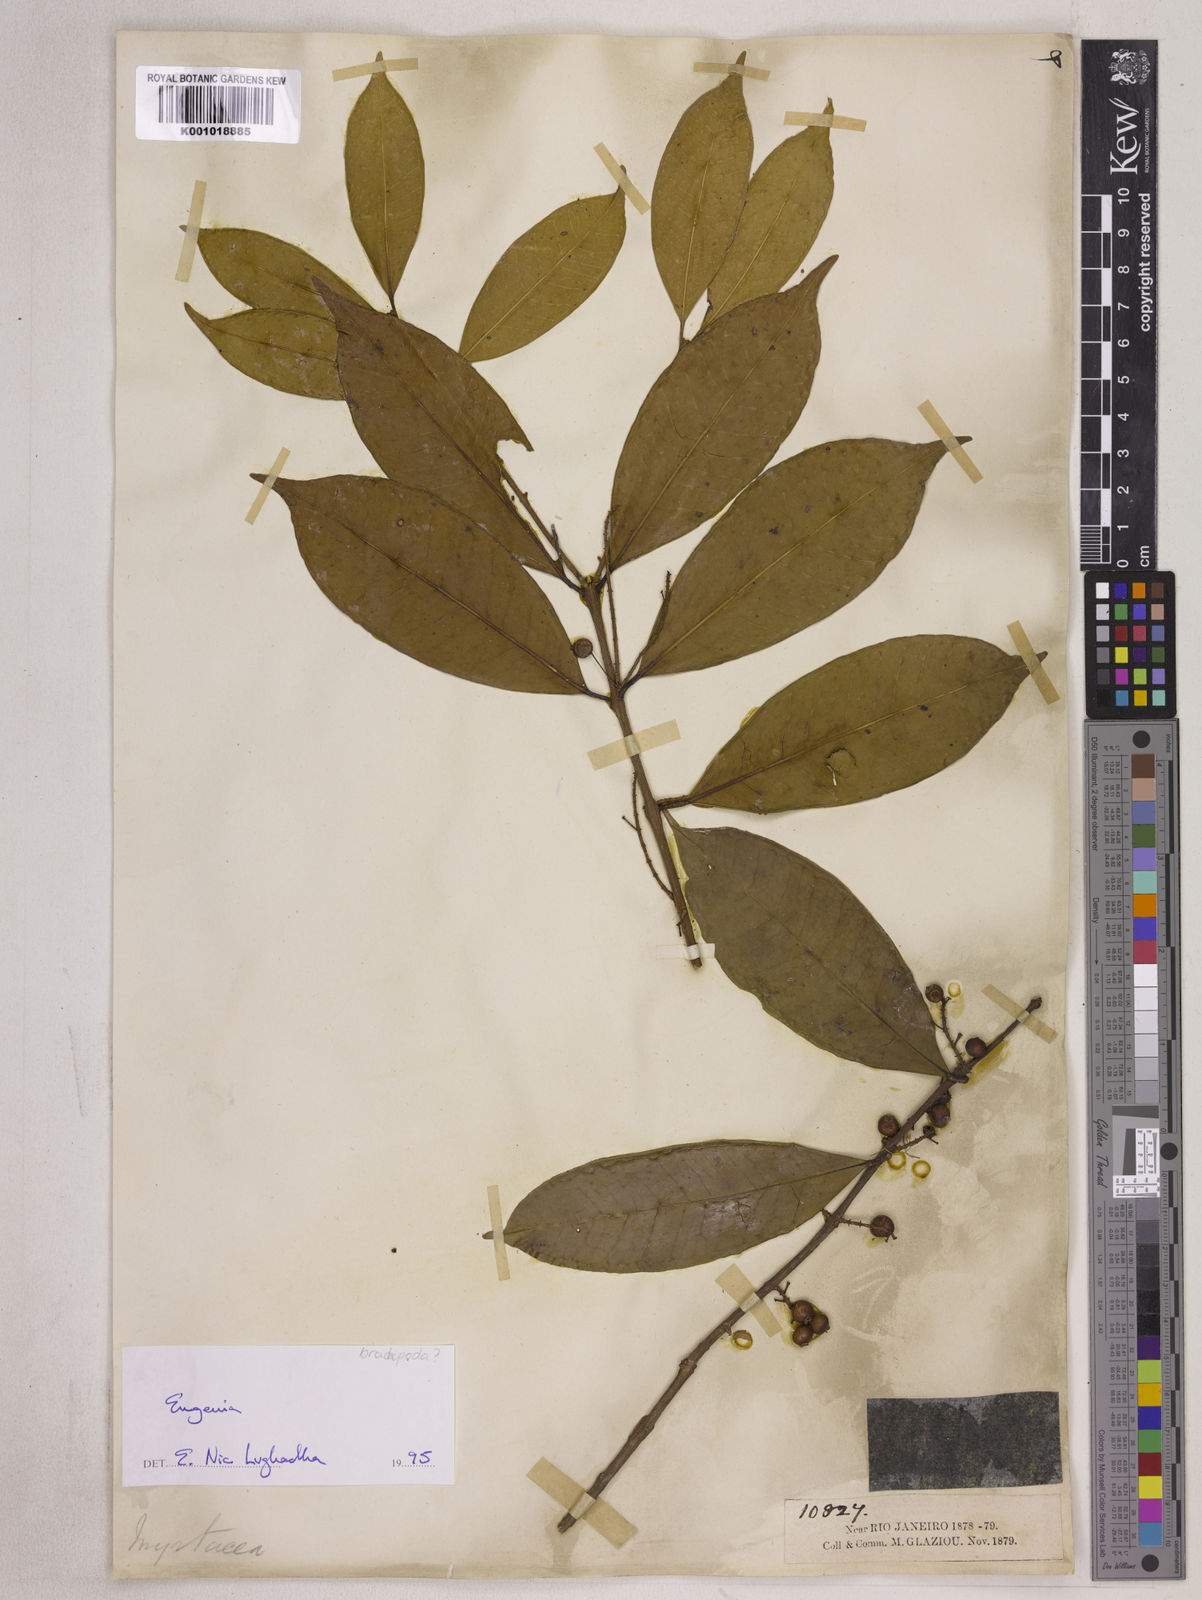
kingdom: Plantae
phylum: Tracheophyta
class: Magnoliopsida
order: Myrtales
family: Myrtaceae
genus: Eugenia
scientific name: Eugenia densiracemosa
